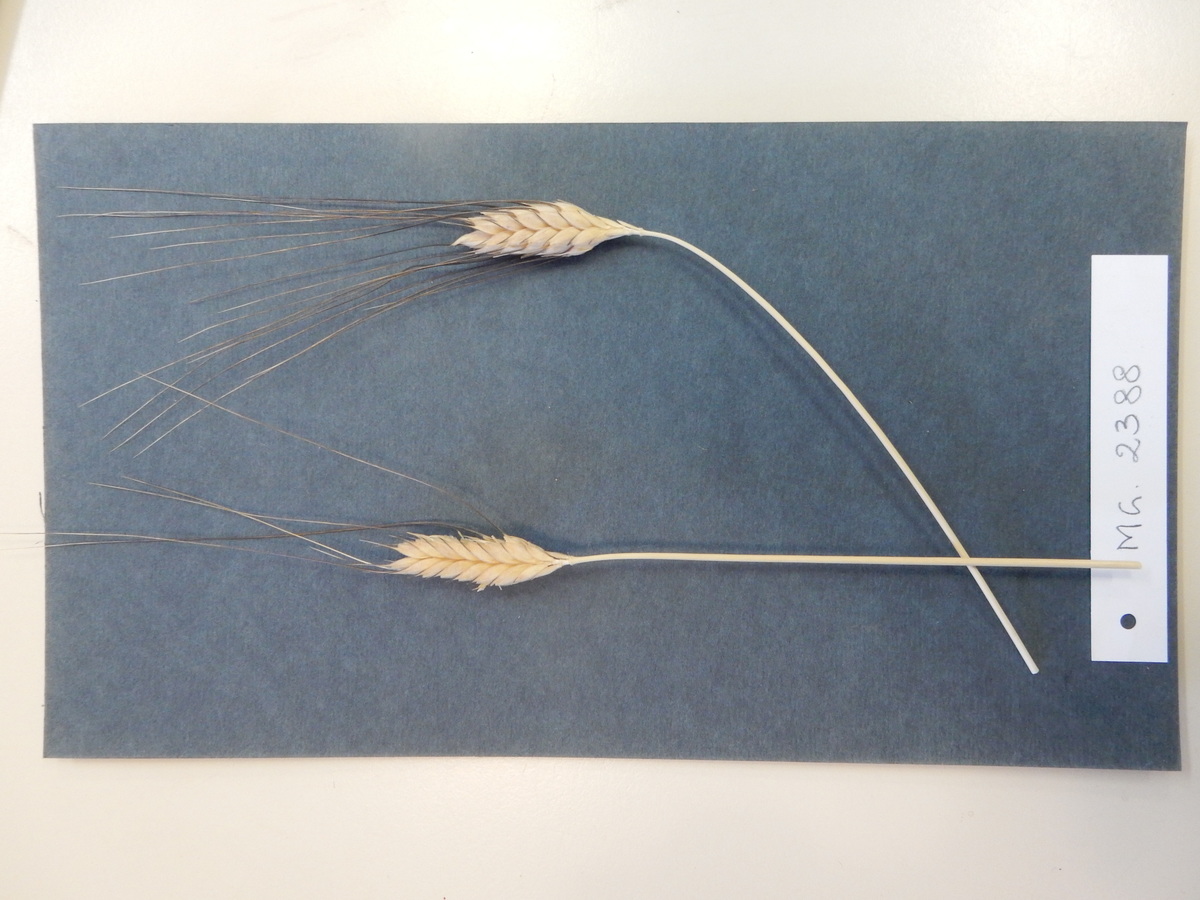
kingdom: Plantae
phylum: Tracheophyta
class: Liliopsida
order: Poales
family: Poaceae
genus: Triticum
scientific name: Triticum turgidum
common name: Wheat
